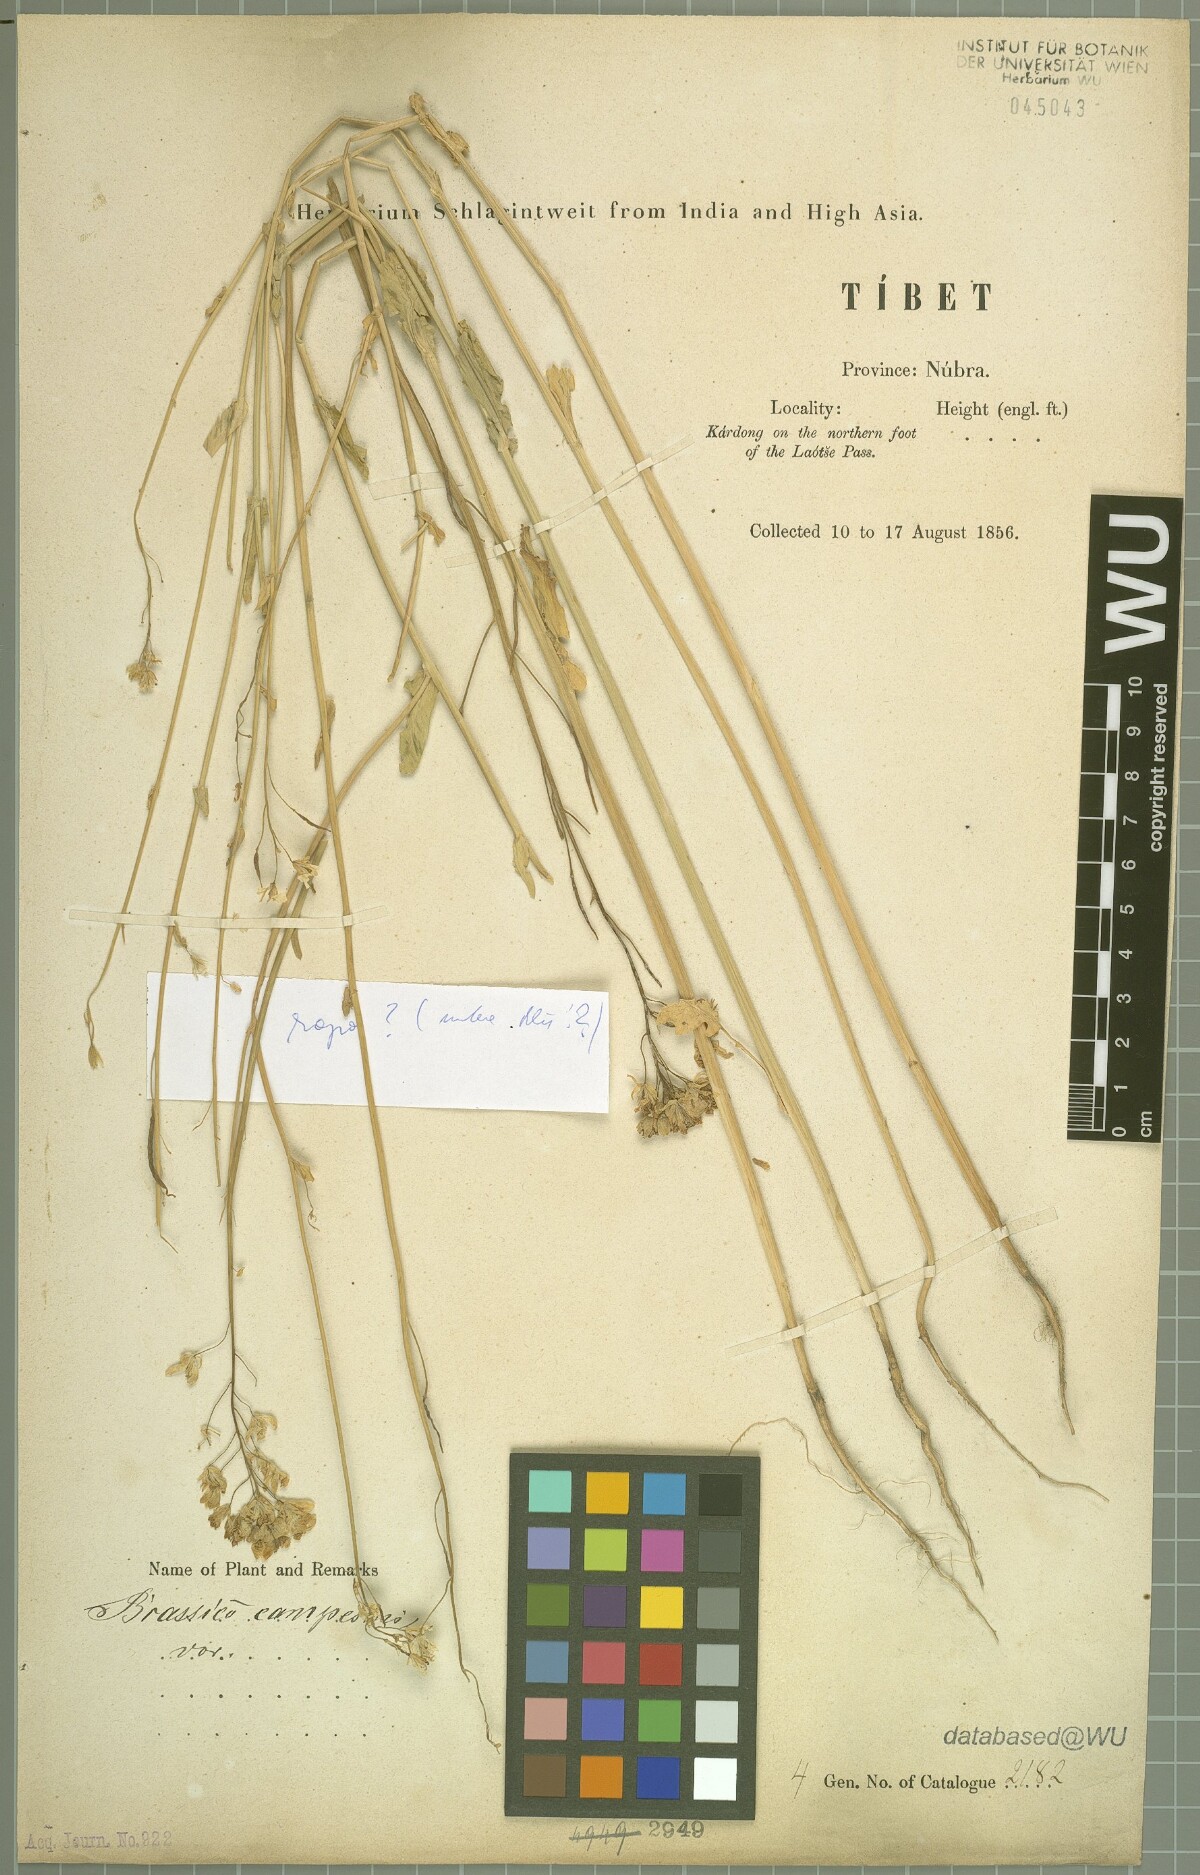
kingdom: Plantae
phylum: Tracheophyta
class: Magnoliopsida
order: Brassicales
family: Brassicaceae
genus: Brassica
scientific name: Brassica rapa
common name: Field mustard
